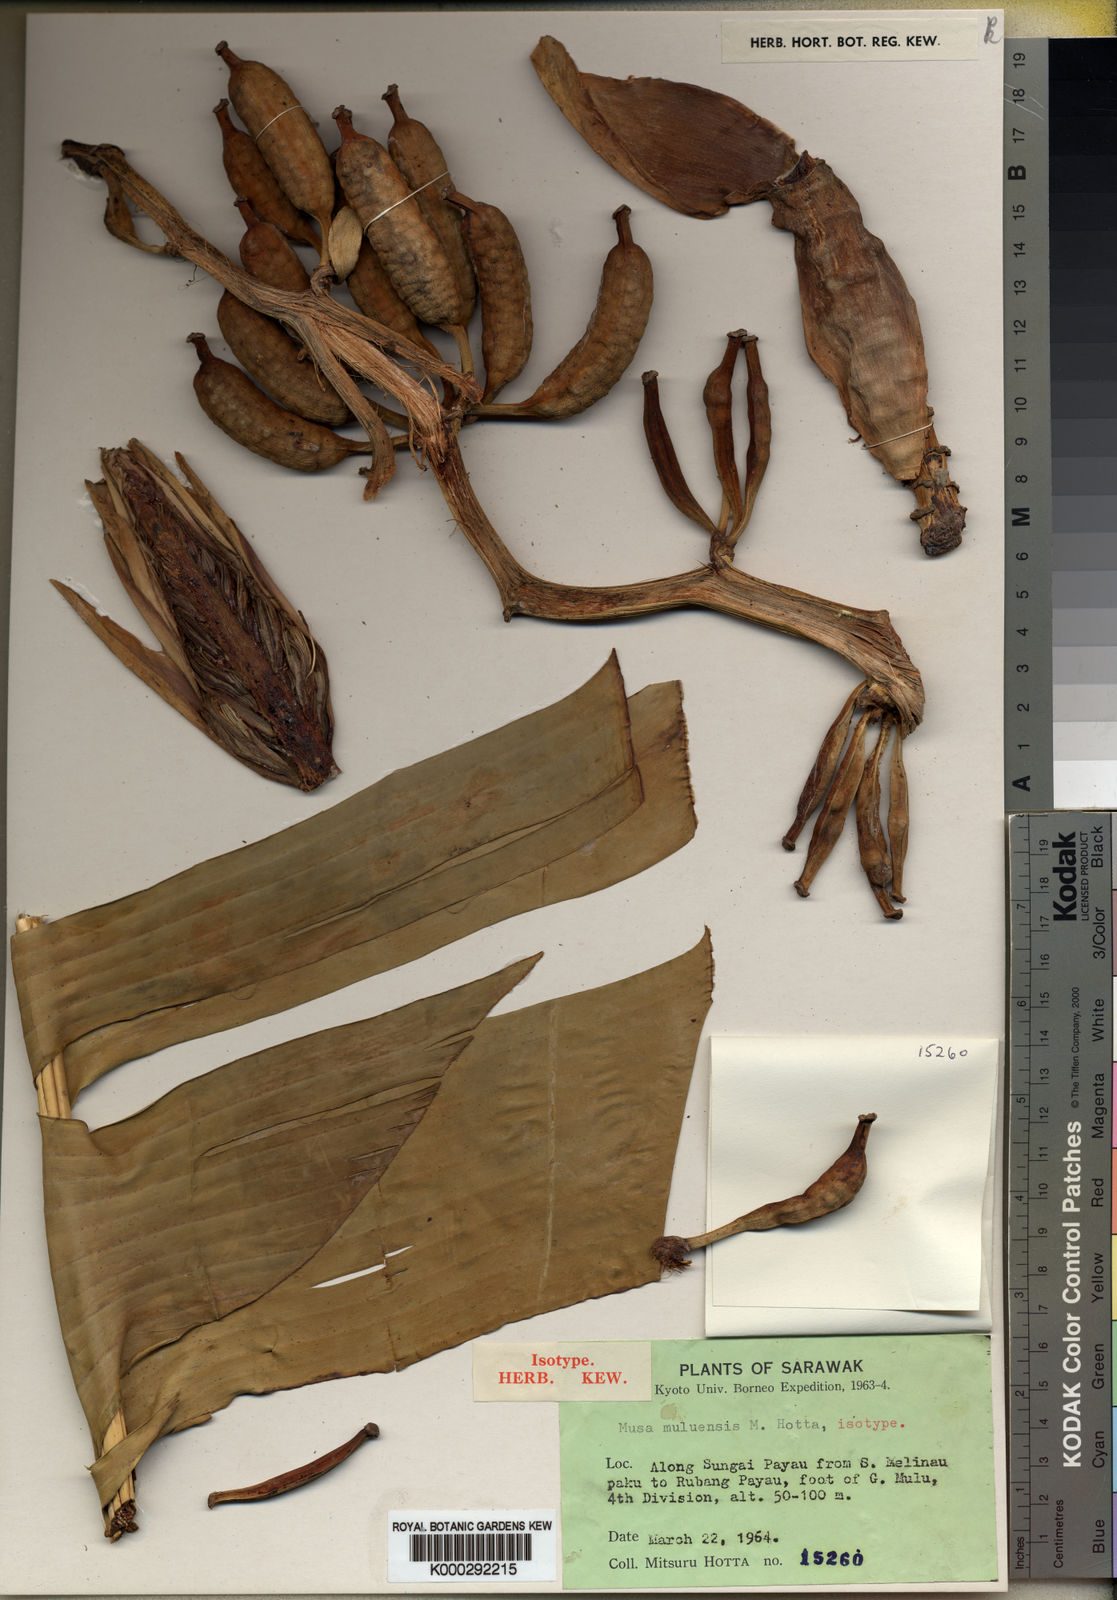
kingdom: Plantae
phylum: Tracheophyta
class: Liliopsida
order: Zingiberales
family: Musaceae
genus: Musa
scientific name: Musa muluensis
